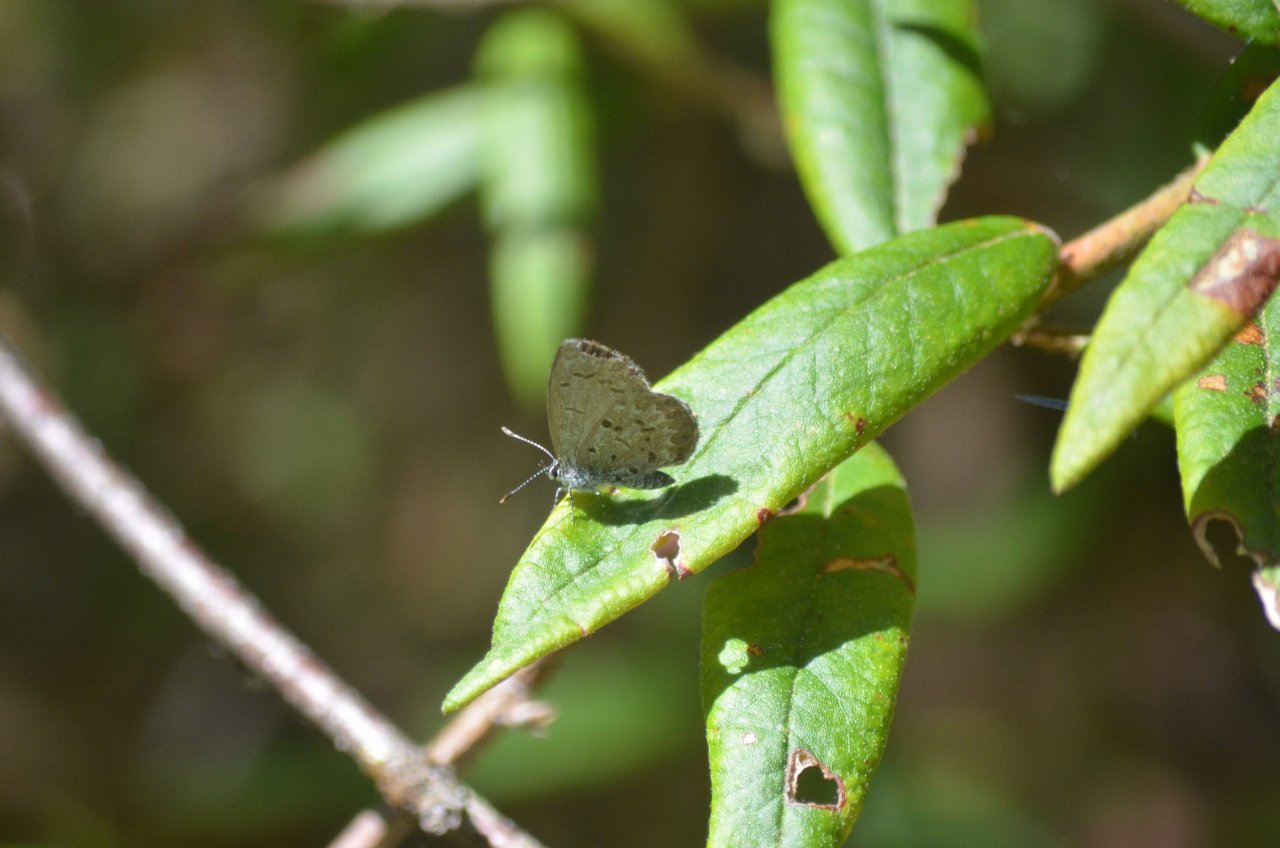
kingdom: Animalia
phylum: Arthropoda
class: Insecta
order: Lepidoptera
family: Lycaenidae
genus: Celastrina
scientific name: Celastrina lucia
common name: Northern Spring Azure
